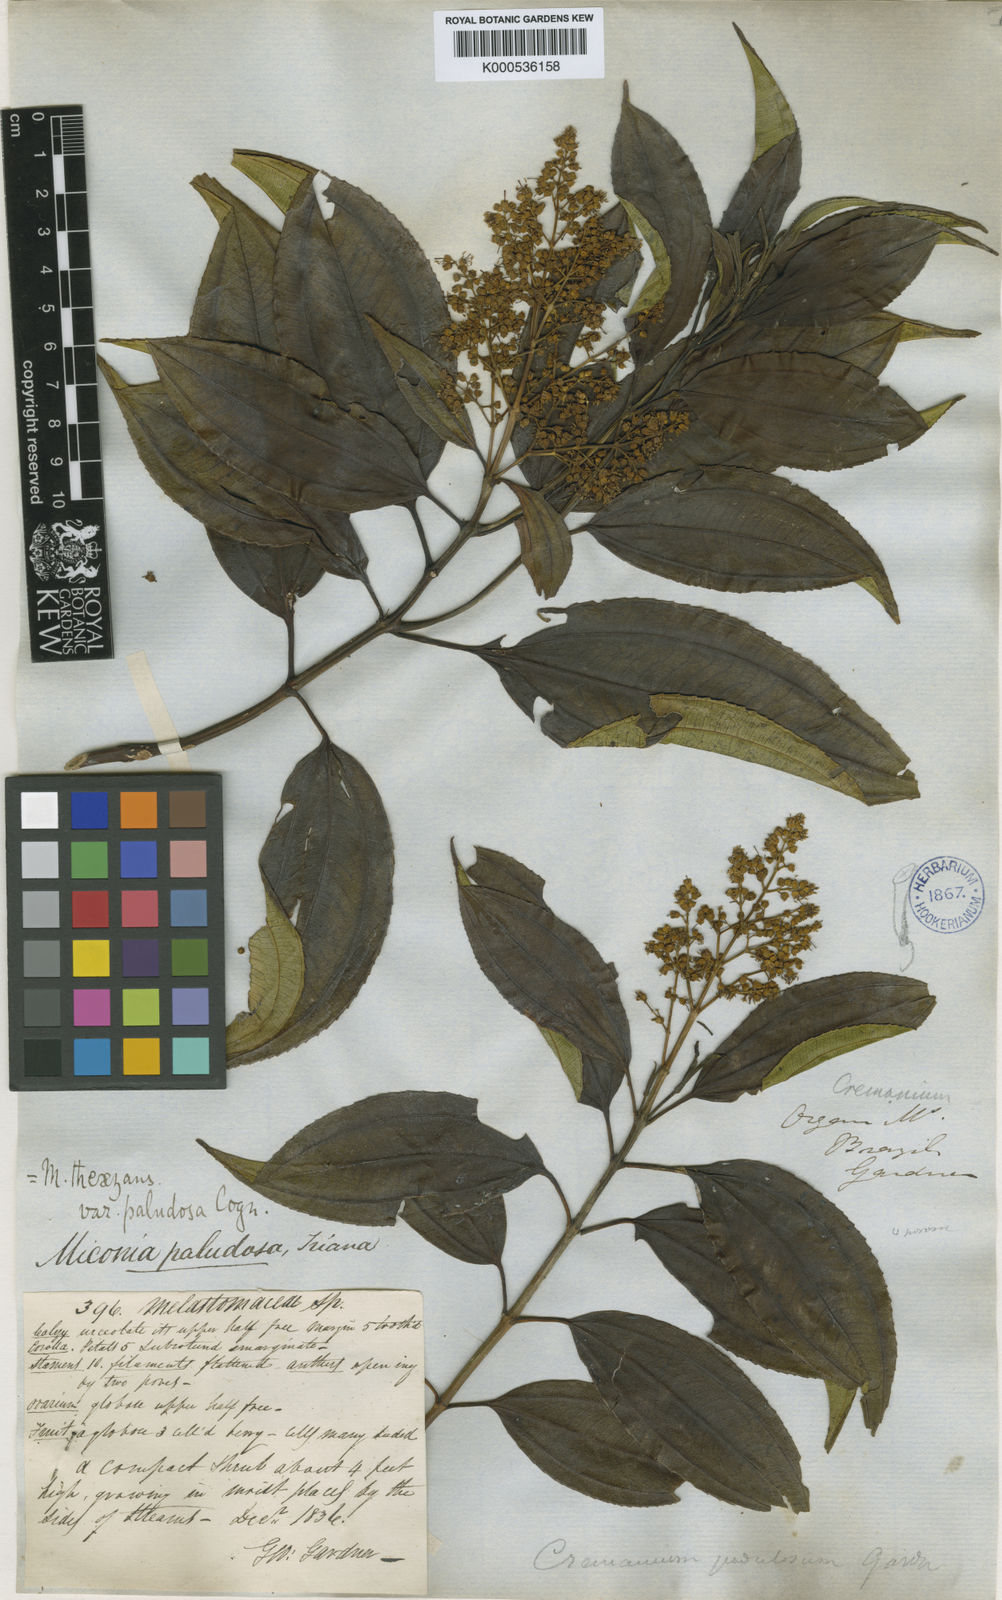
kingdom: Plantae
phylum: Tracheophyta
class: Magnoliopsida
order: Myrtales
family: Melastomataceae
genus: Miconia
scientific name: Miconia
